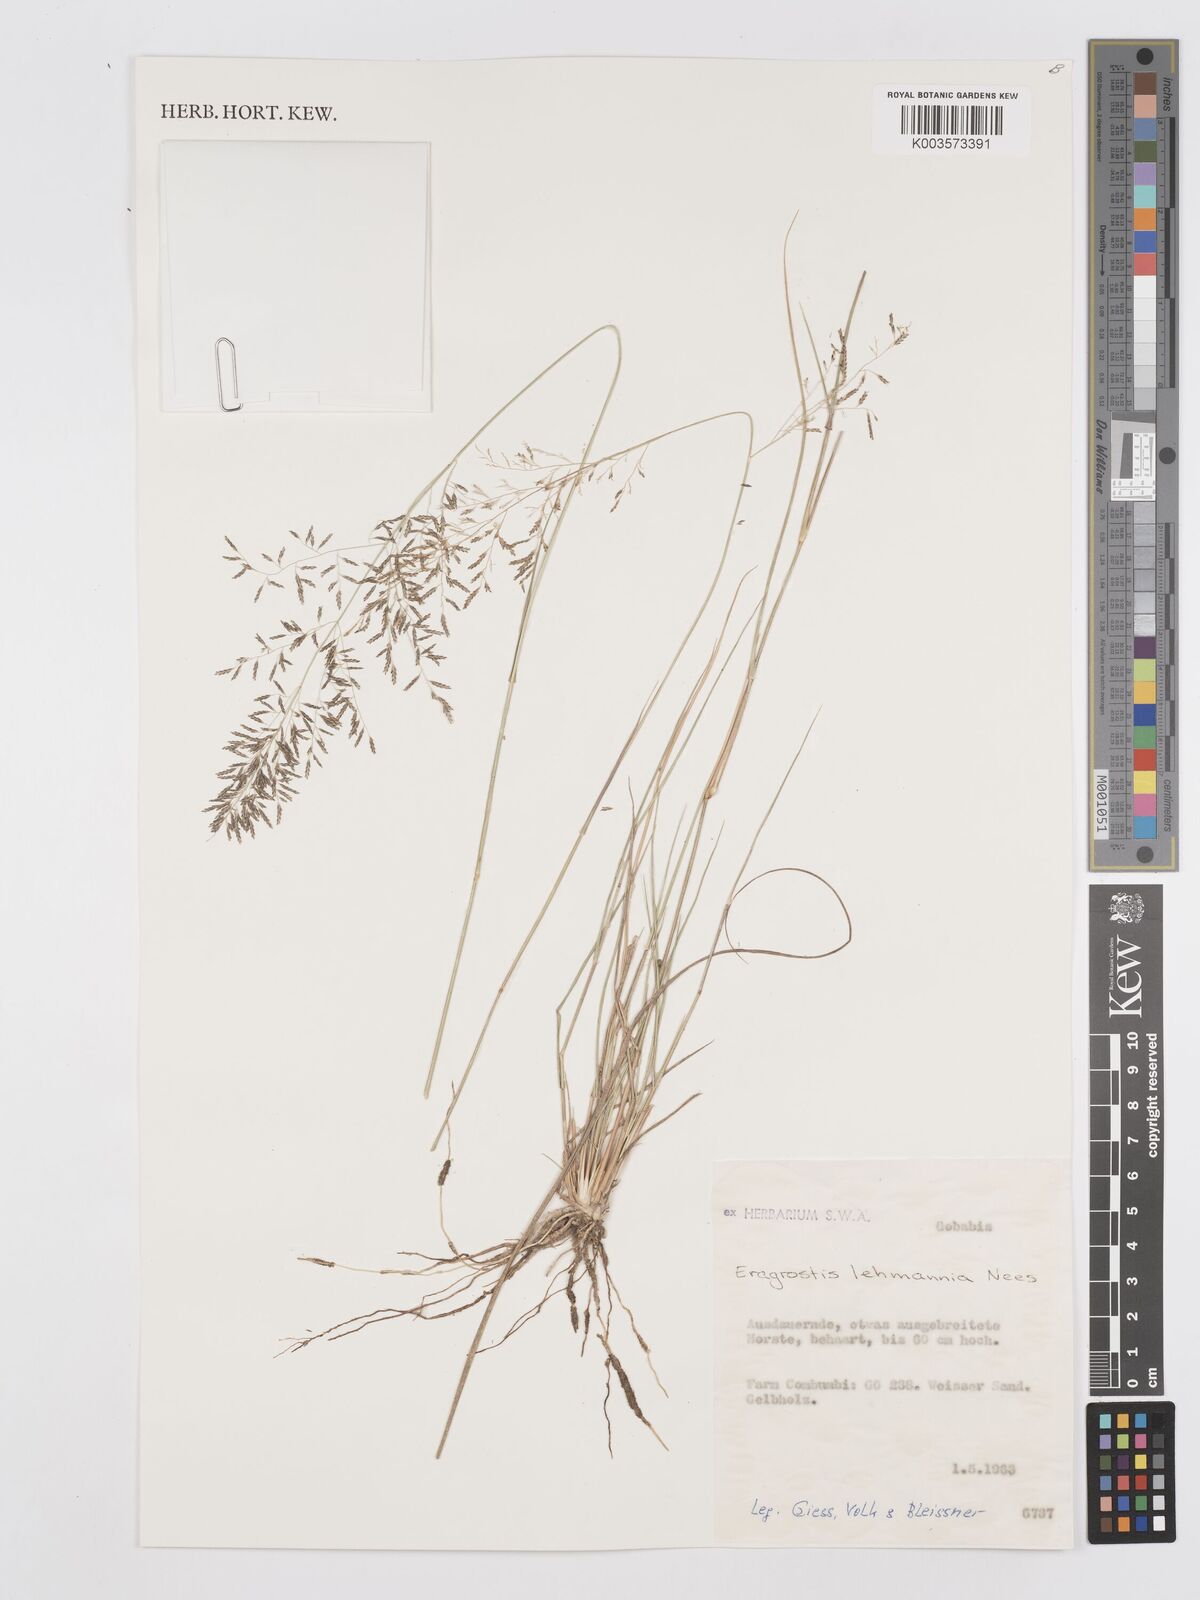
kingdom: Plantae
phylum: Tracheophyta
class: Liliopsida
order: Poales
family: Poaceae
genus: Eragrostis
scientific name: Eragrostis lehmanniana
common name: Lehmann lovegrass
